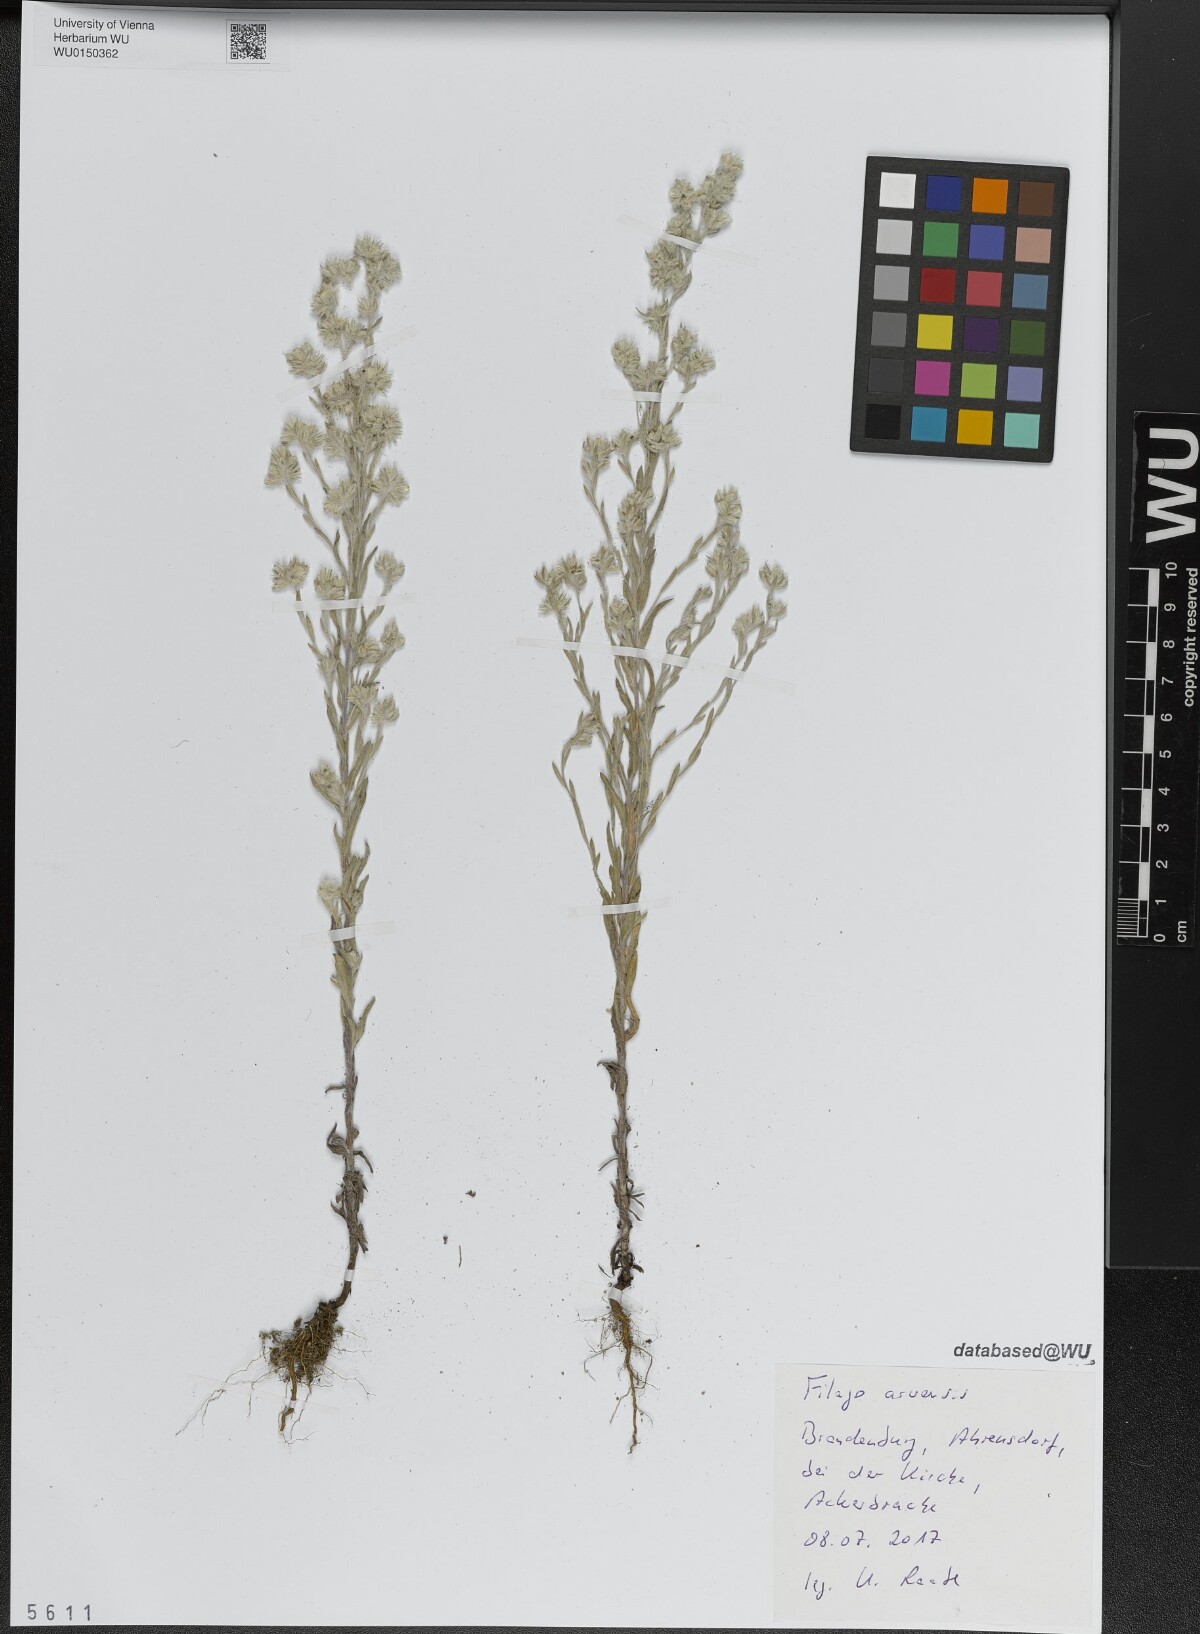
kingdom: Plantae
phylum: Tracheophyta
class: Magnoliopsida
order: Asterales
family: Asteraceae
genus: Filago
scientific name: Filago arvensis
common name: Field cudweed
